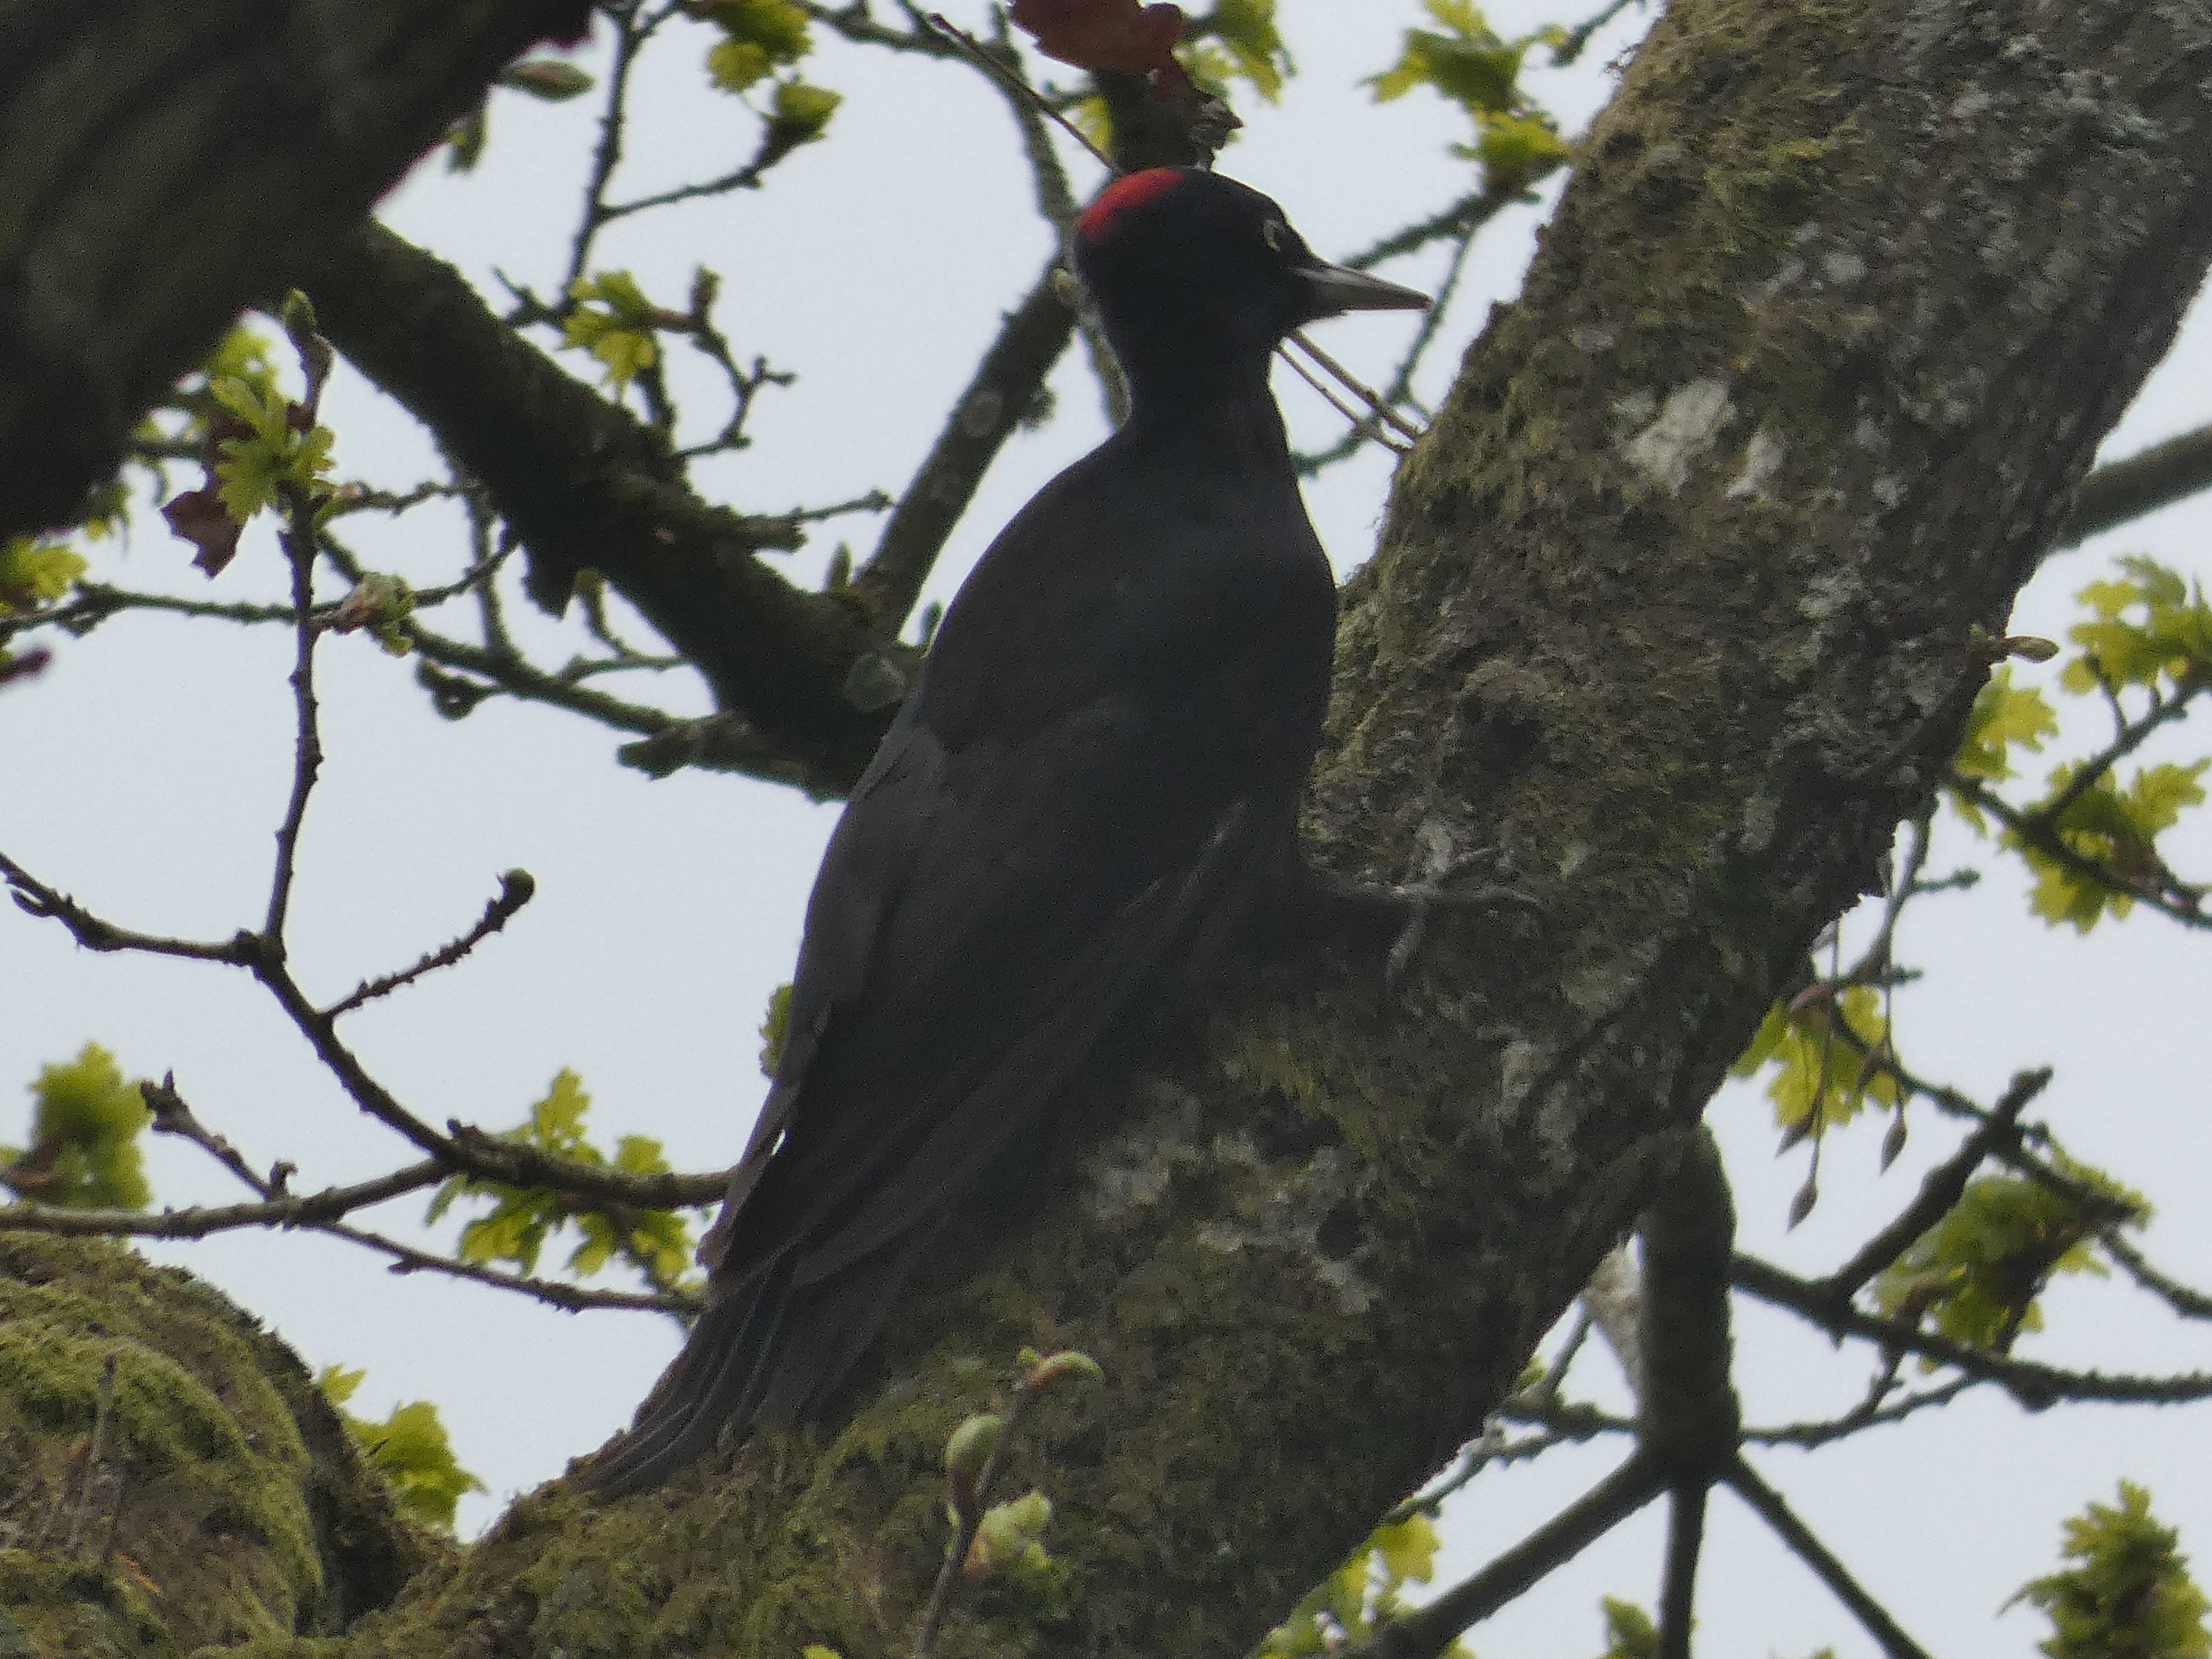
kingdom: Animalia
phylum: Chordata
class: Aves
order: Piciformes
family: Picidae
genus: Dryocopus
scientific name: Dryocopus martius
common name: Sortspætte
